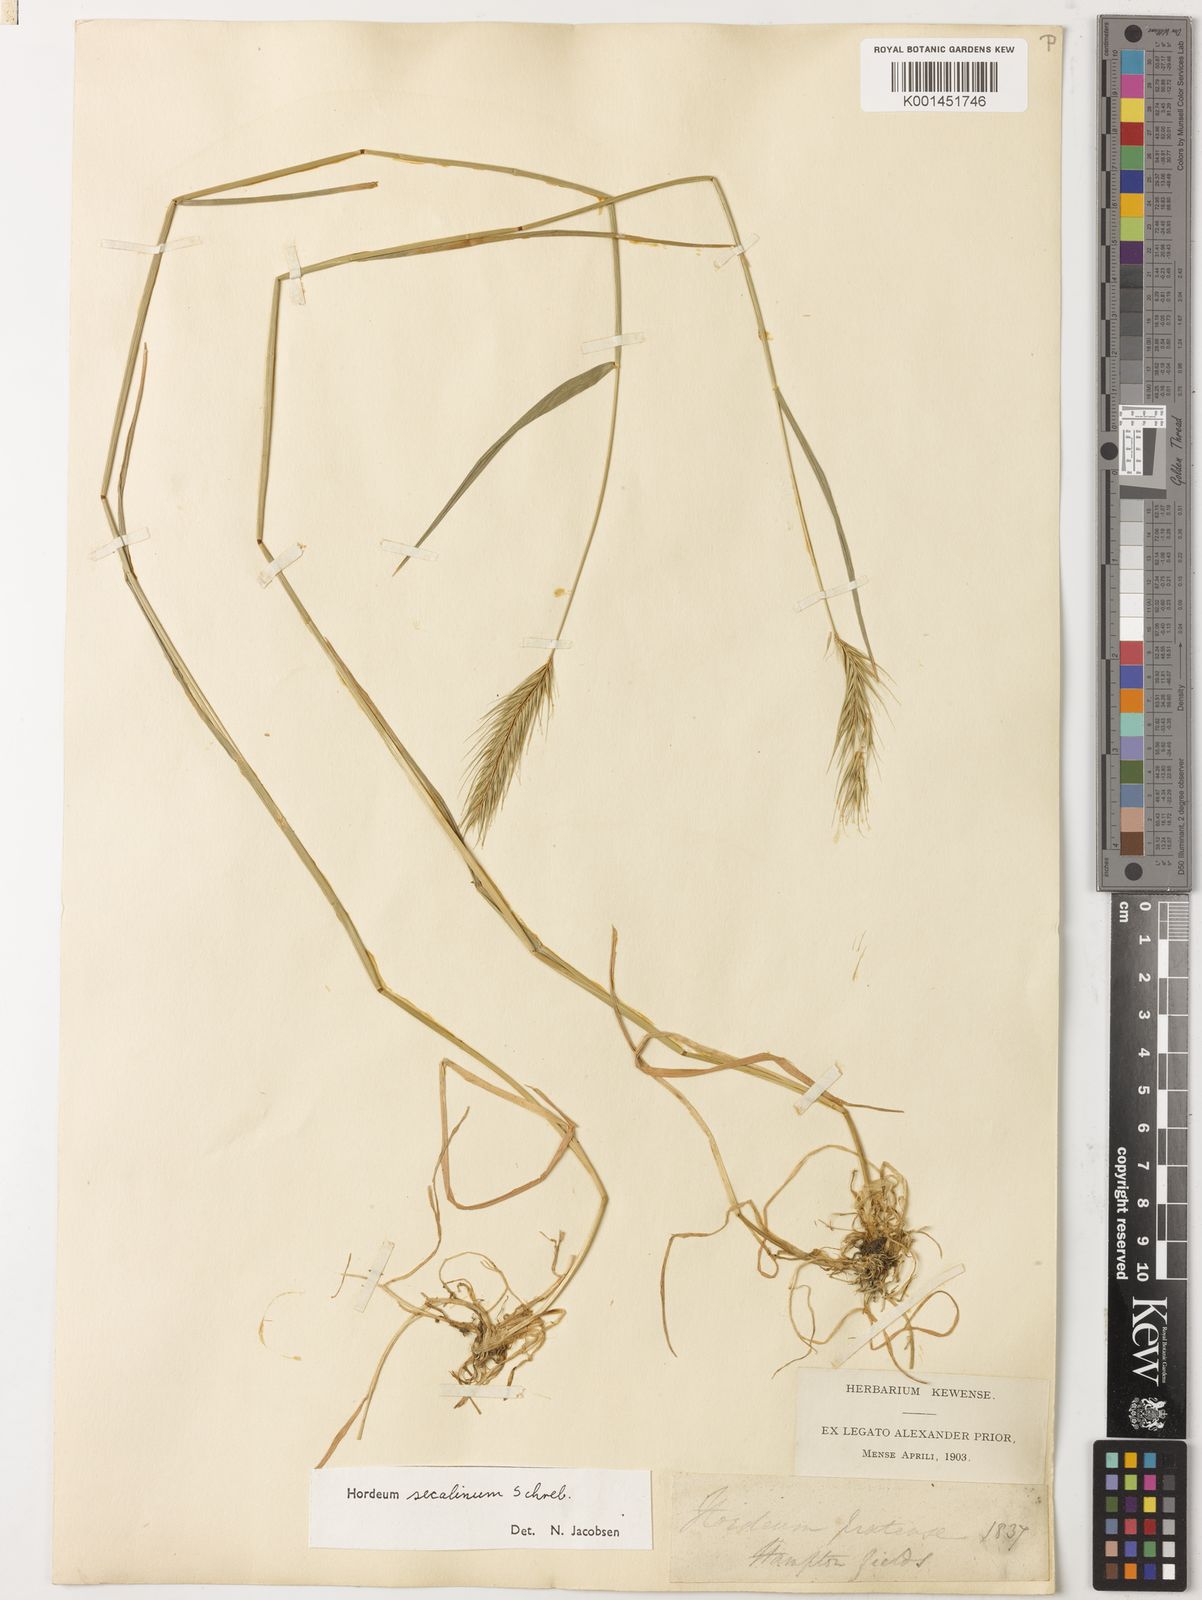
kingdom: Plantae
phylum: Tracheophyta
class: Liliopsida
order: Poales
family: Poaceae
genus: Hordeum
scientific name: Hordeum secalinum
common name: Meadow barley
